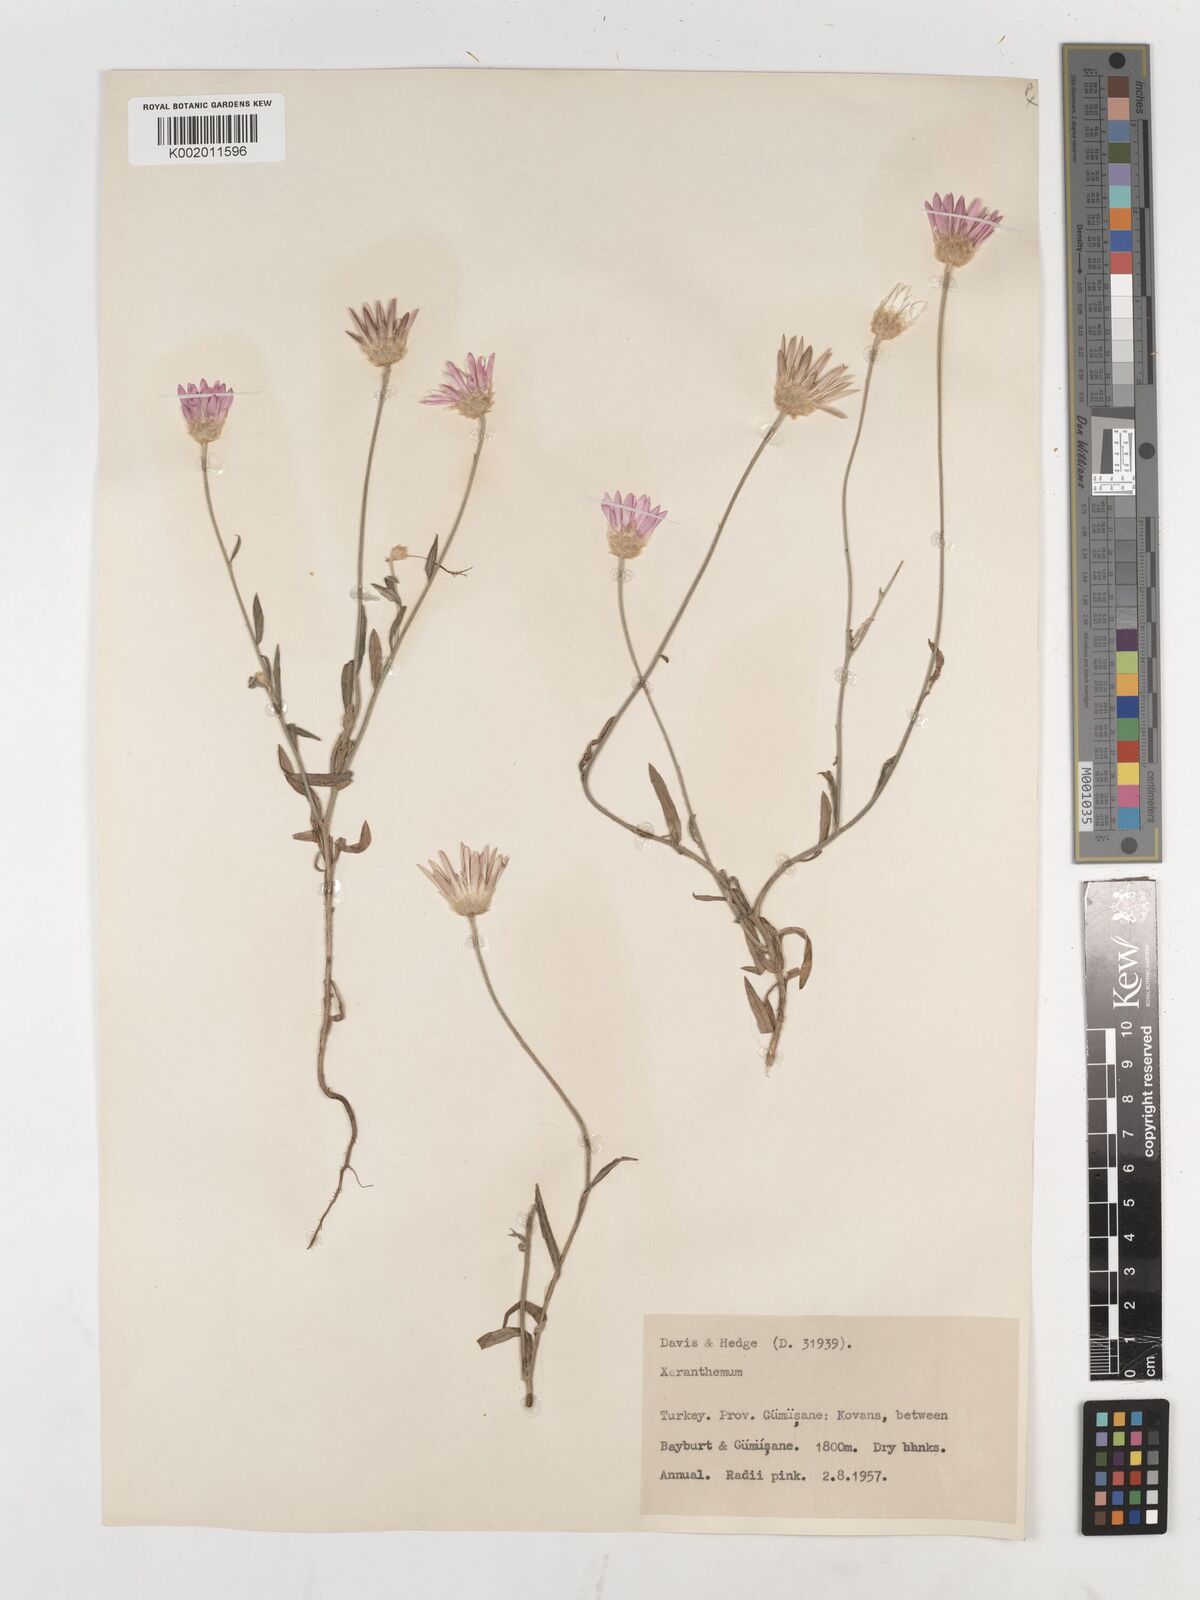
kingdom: Plantae
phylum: Tracheophyta
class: Magnoliopsida
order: Asterales
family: Asteraceae
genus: Xeranthemum
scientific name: Xeranthemum annuum
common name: Immortelle
